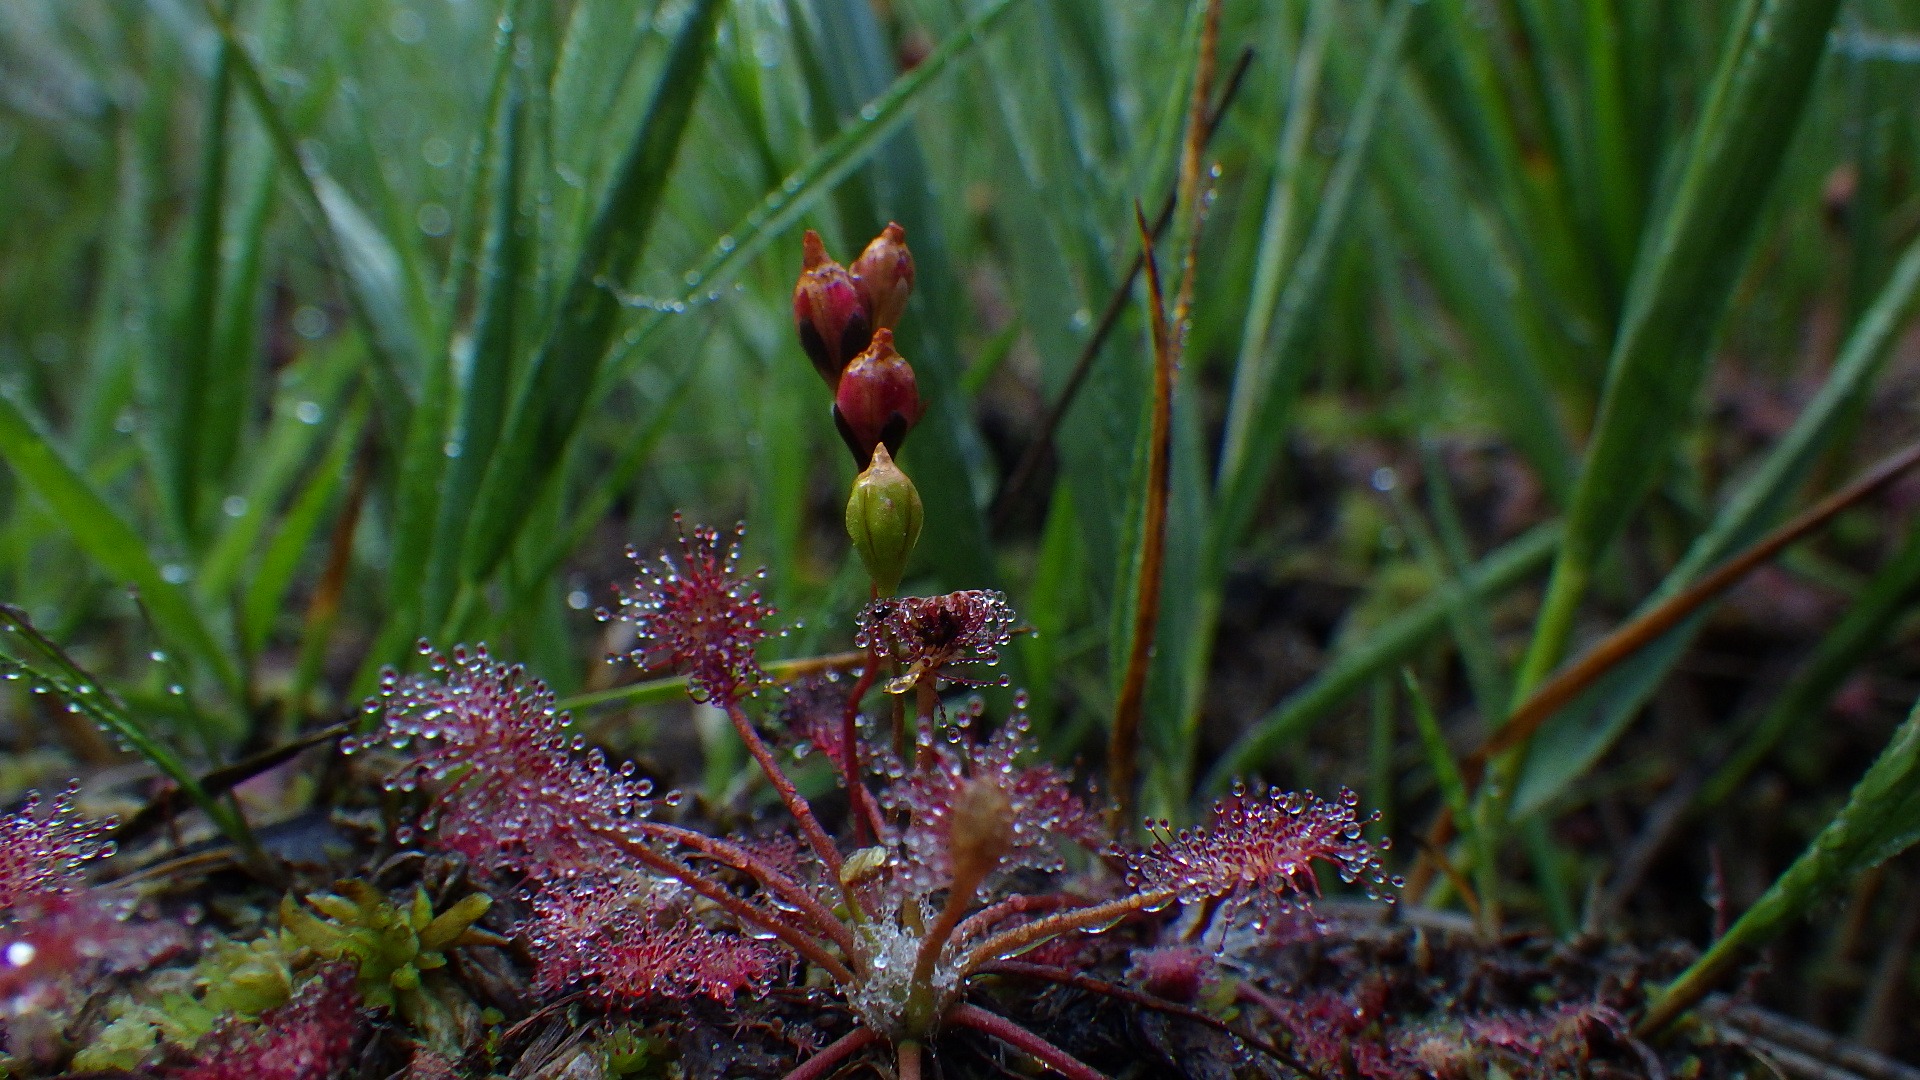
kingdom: Plantae
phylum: Tracheophyta
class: Magnoliopsida
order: Caryophyllales
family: Droseraceae
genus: Drosera
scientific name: Drosera intermedia
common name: Liden soldug
